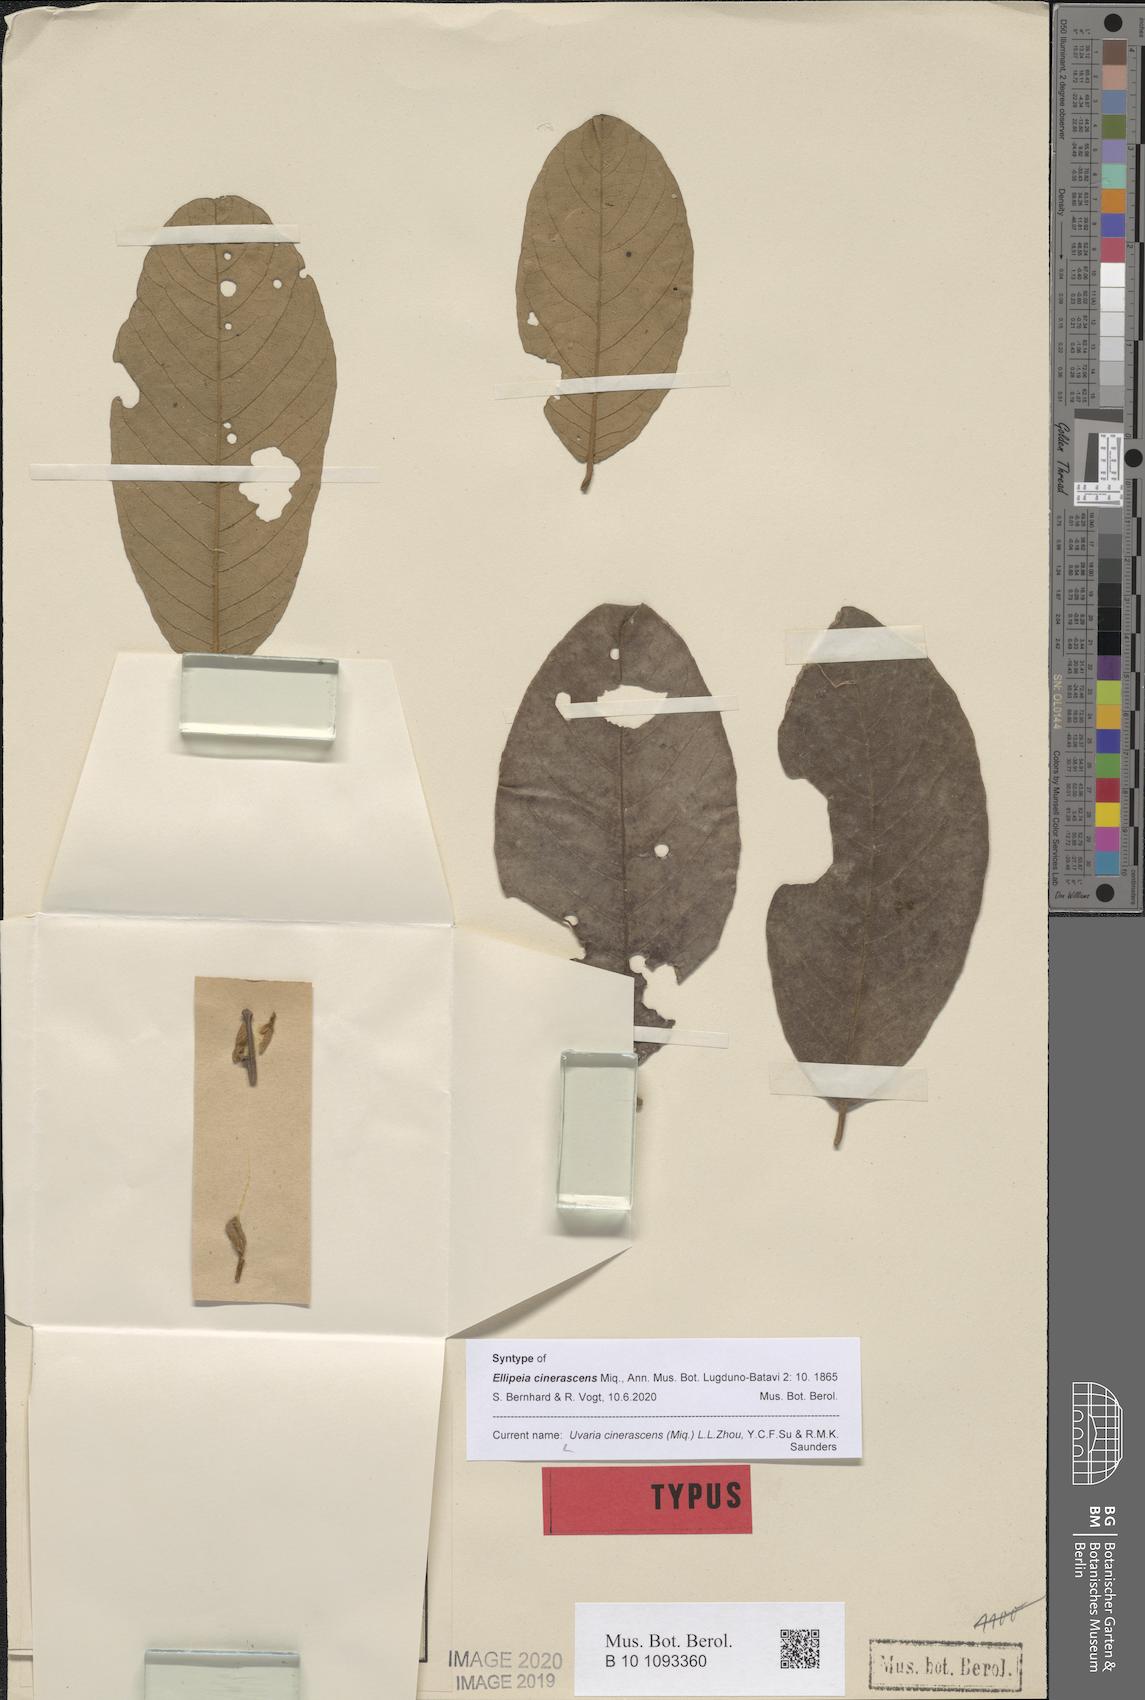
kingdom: Plantae
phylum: Tracheophyta
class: Magnoliopsida
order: Magnoliales
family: Annonaceae
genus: Uvaria
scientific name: Uvaria cinerascens
